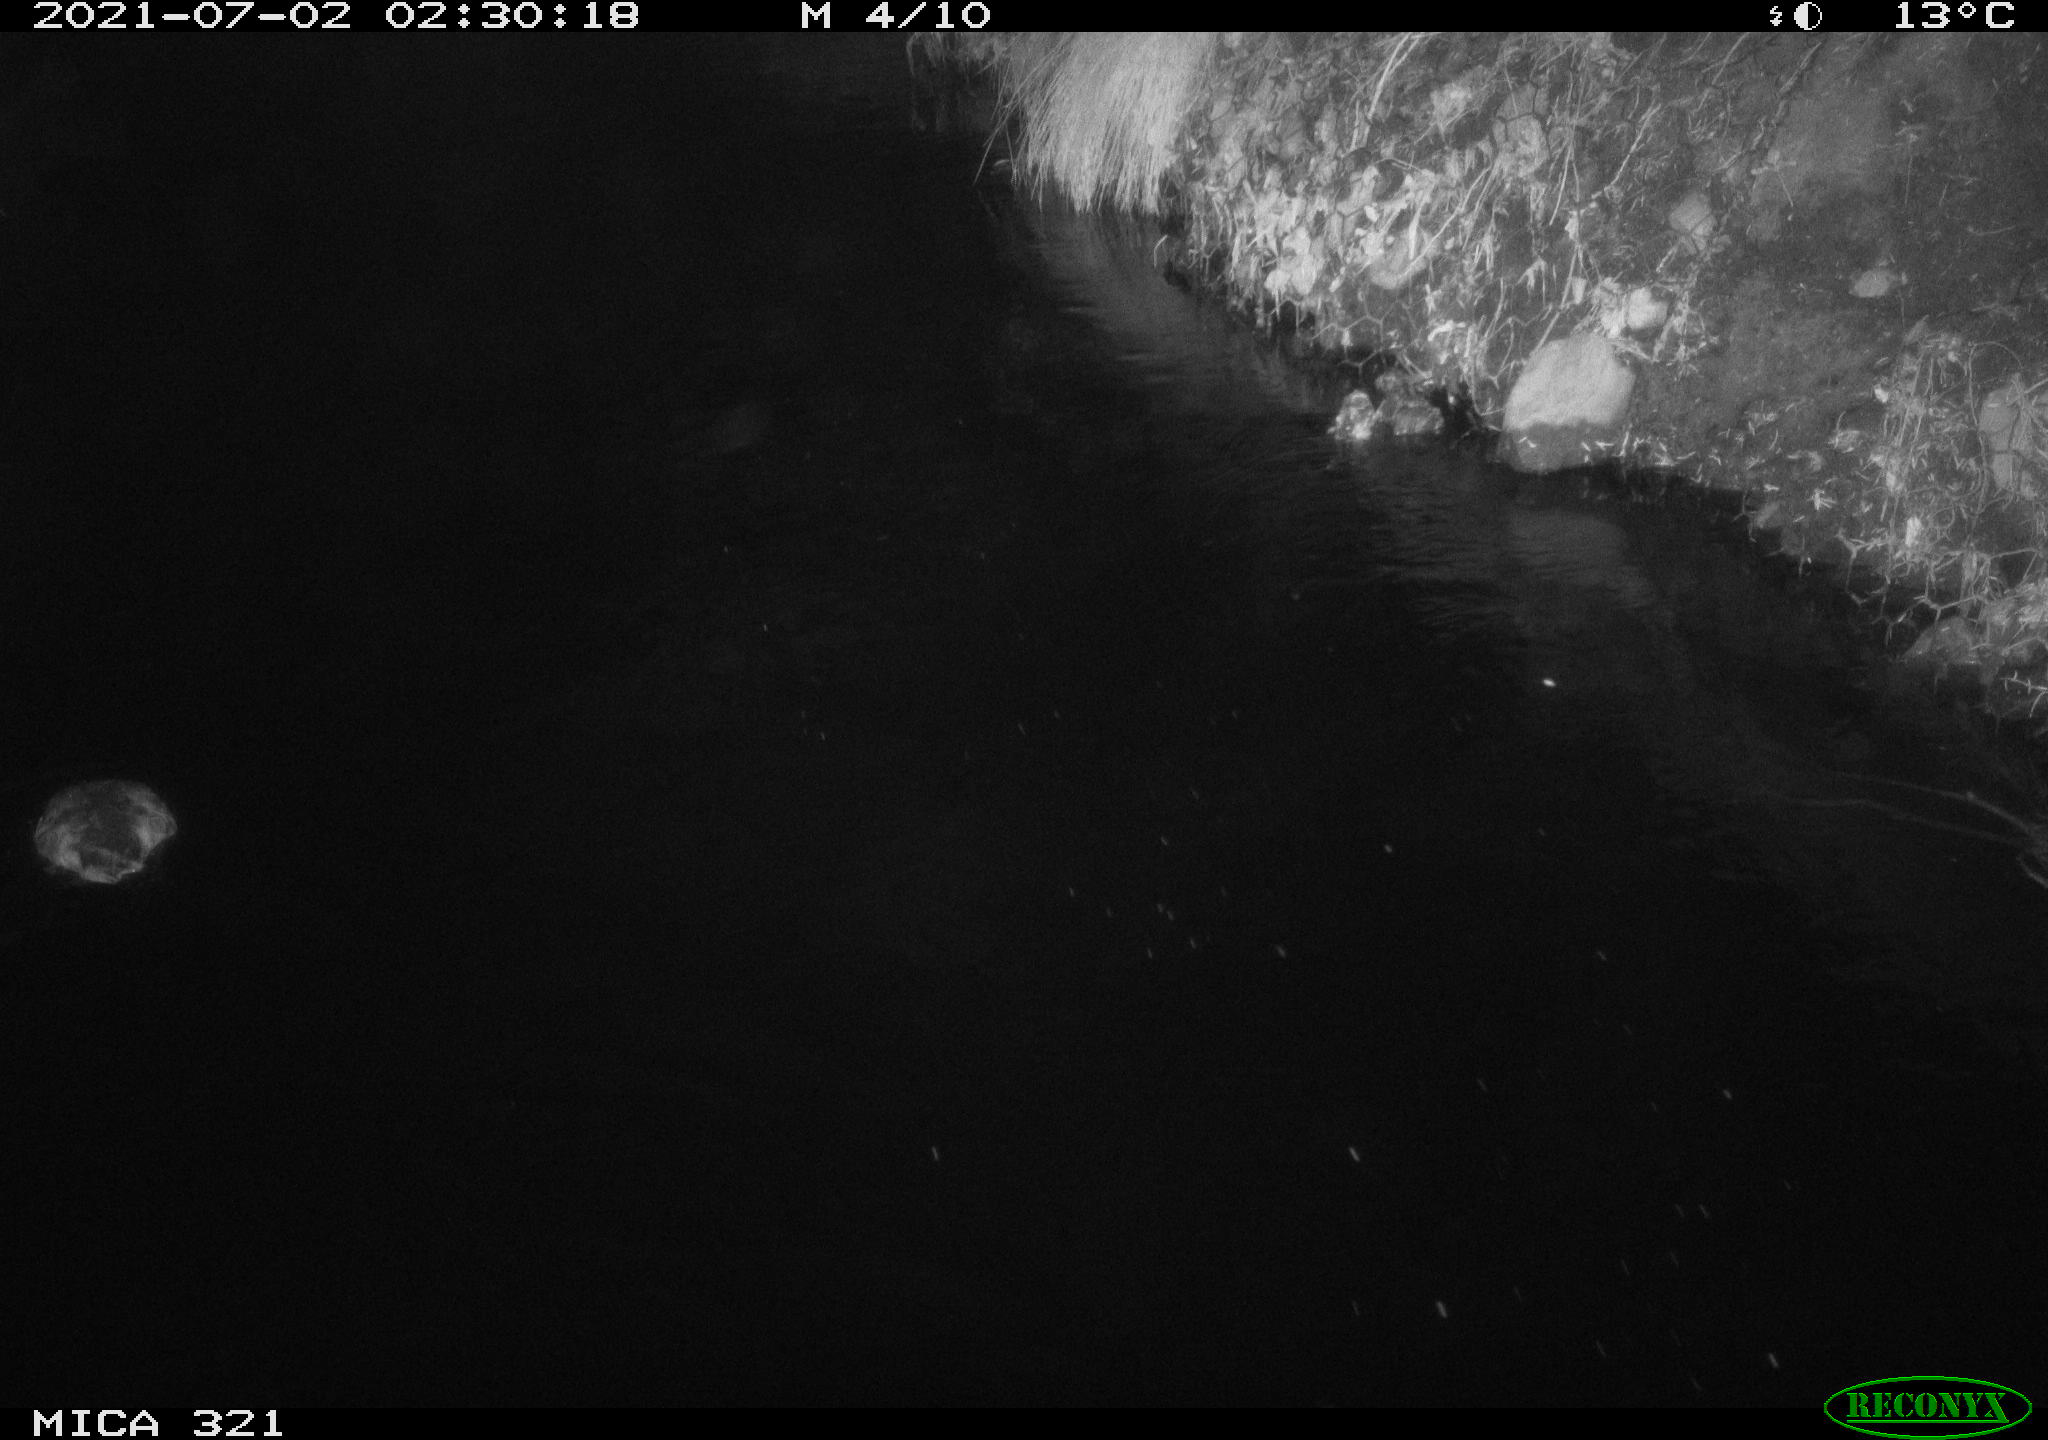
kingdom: Animalia
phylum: Chordata
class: Aves
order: Anseriformes
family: Anatidae
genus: Anas
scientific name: Anas platyrhynchos
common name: Mallard
